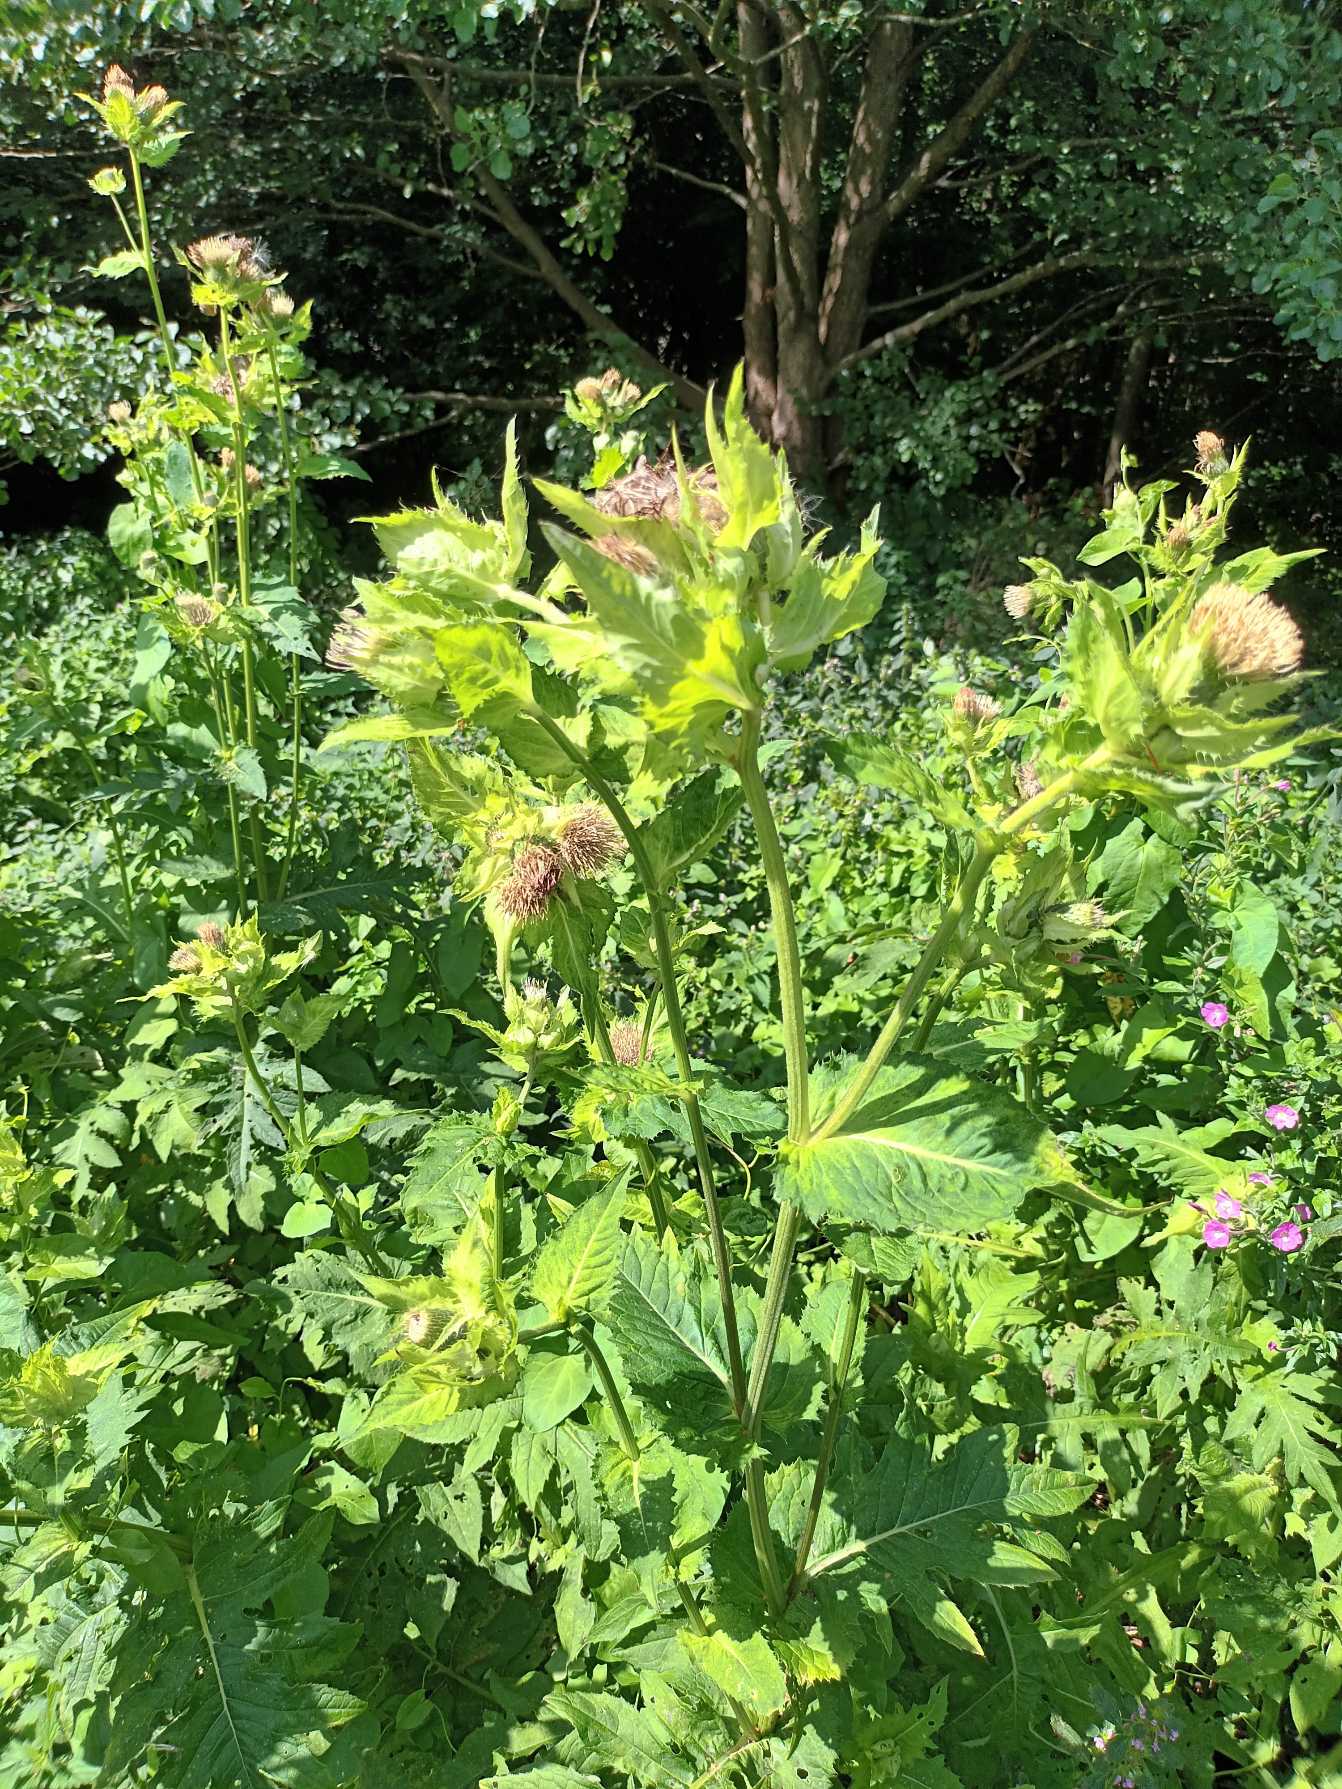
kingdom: Plantae
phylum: Tracheophyta
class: Magnoliopsida
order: Asterales
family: Asteraceae
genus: Cirsium
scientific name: Cirsium oleraceum
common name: Kål-tidsel
